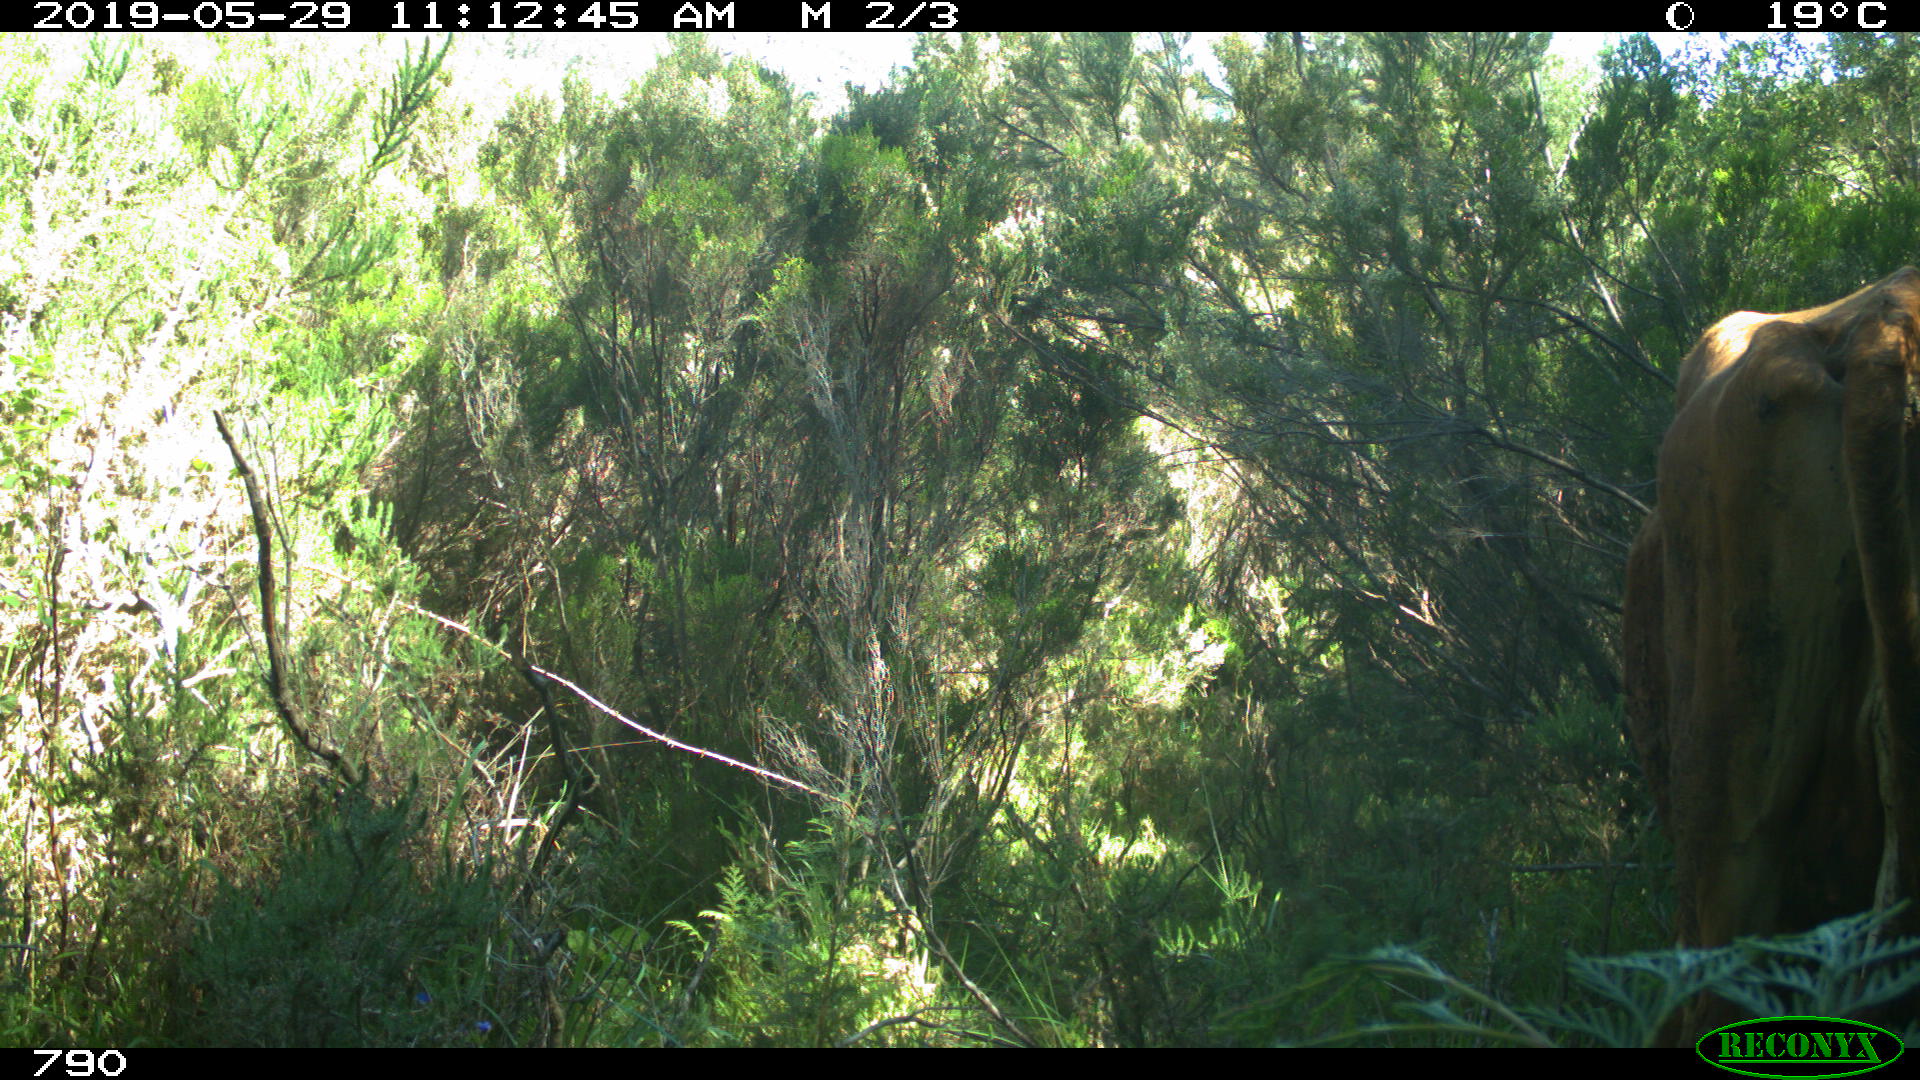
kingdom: Animalia
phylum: Chordata
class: Mammalia
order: Artiodactyla
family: Bovidae
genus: Bos
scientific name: Bos taurus
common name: Domesticated cattle
